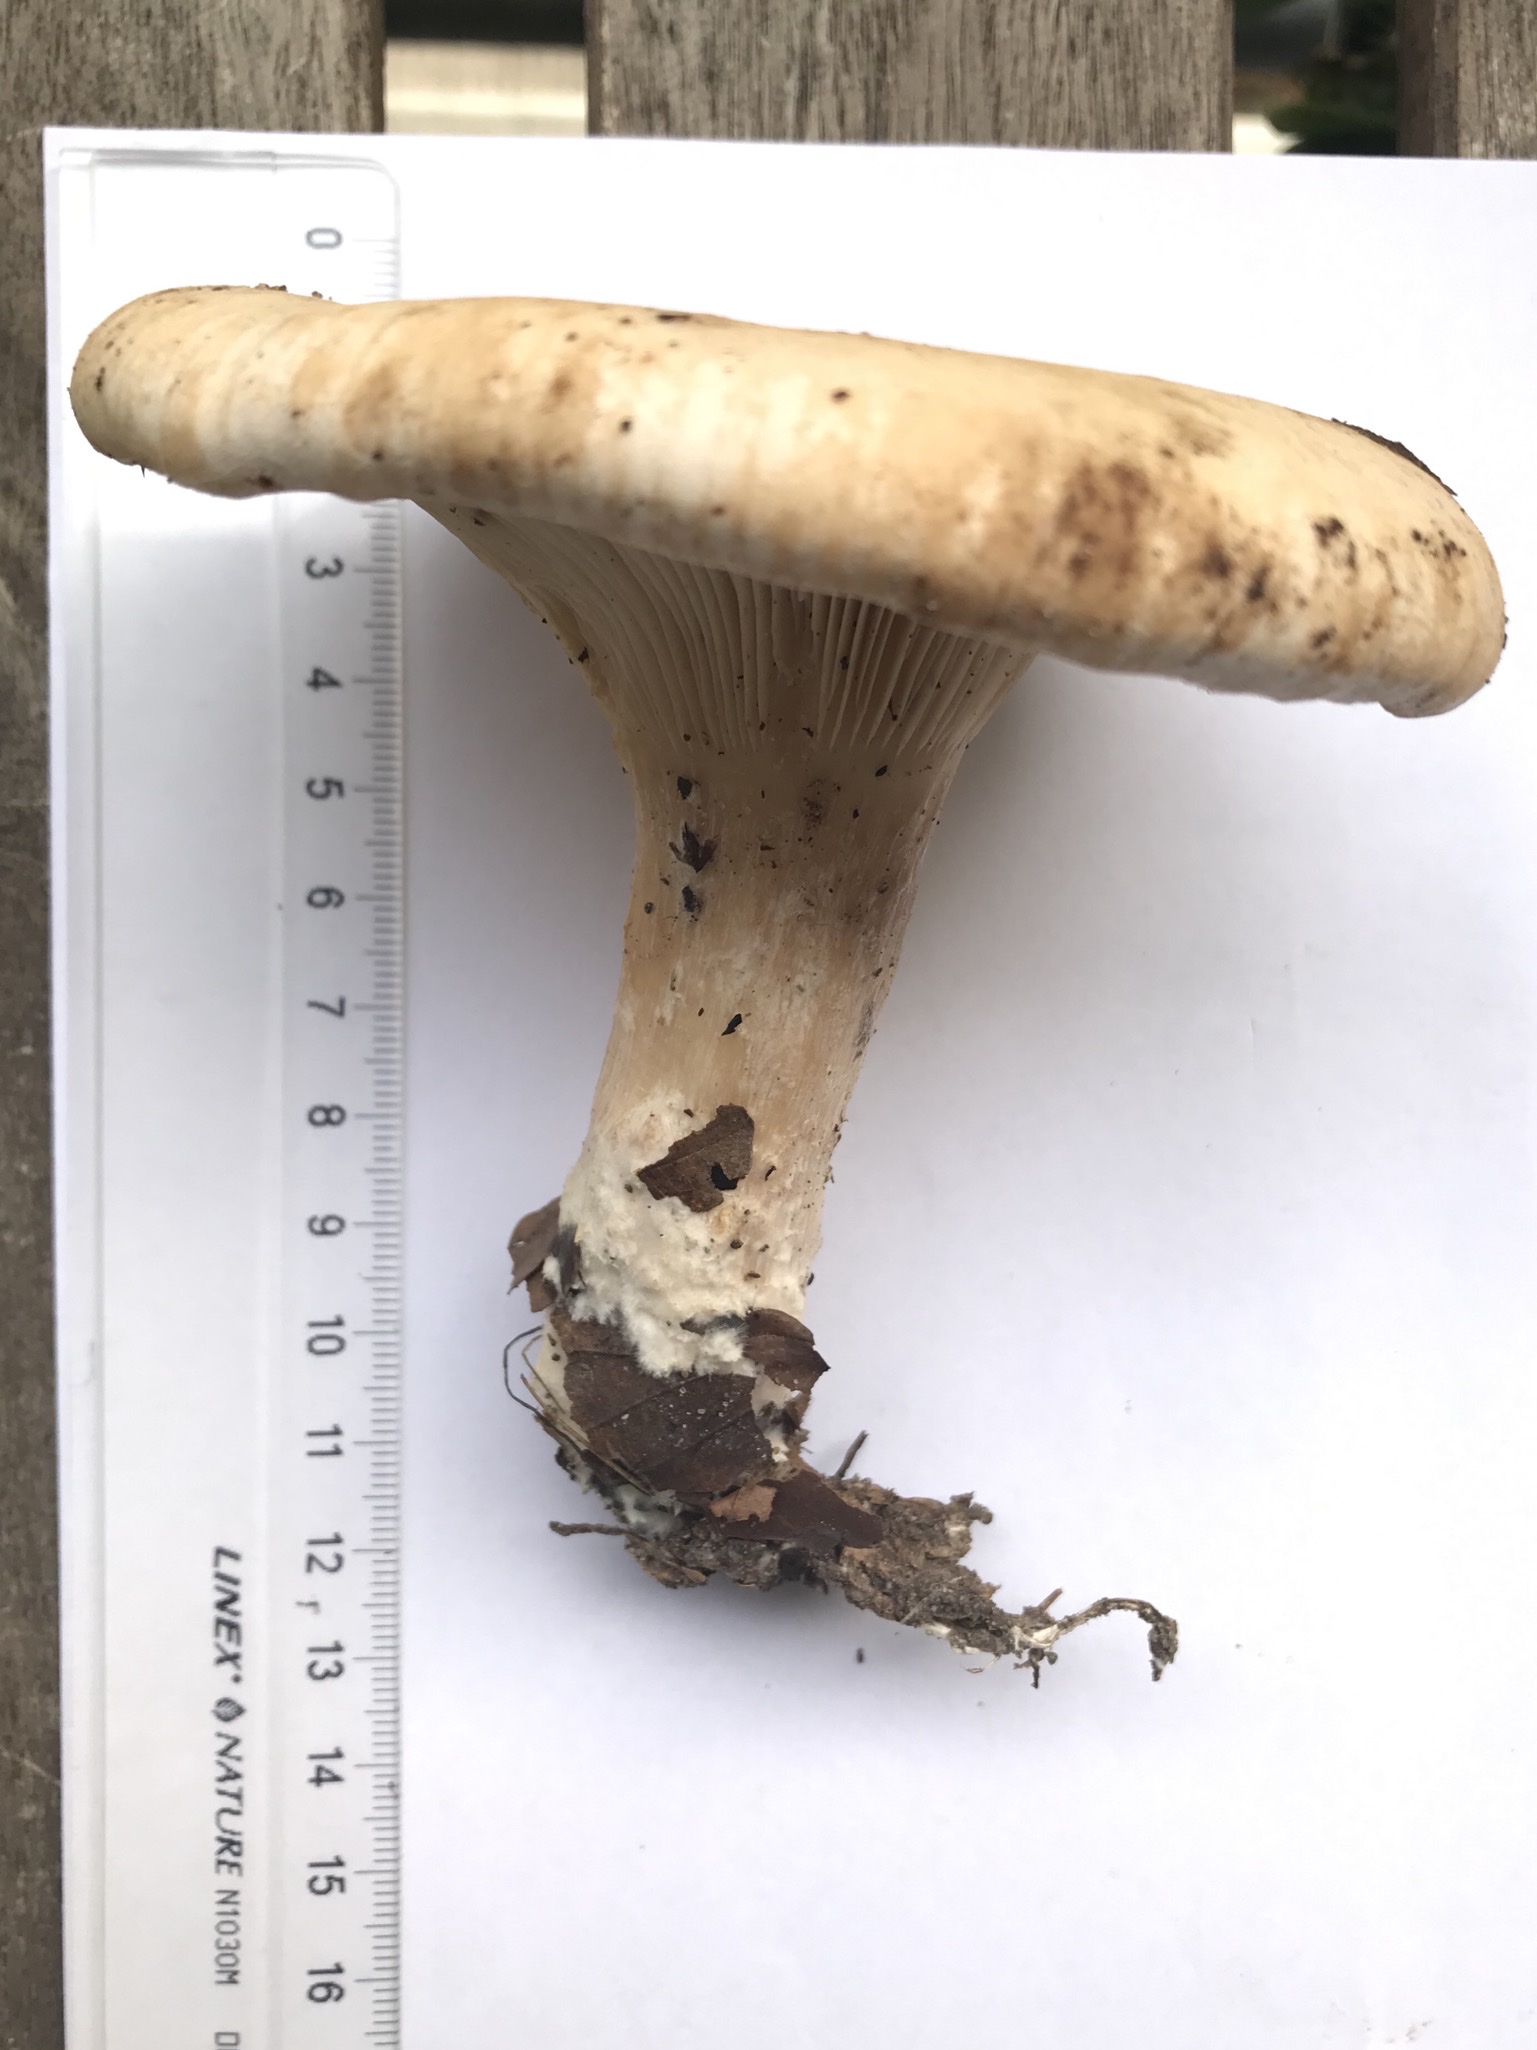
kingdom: Fungi
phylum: Basidiomycota
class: Agaricomycetes
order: Agaricales
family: Tricholomataceae
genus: Paralepista
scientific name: Paralepista
